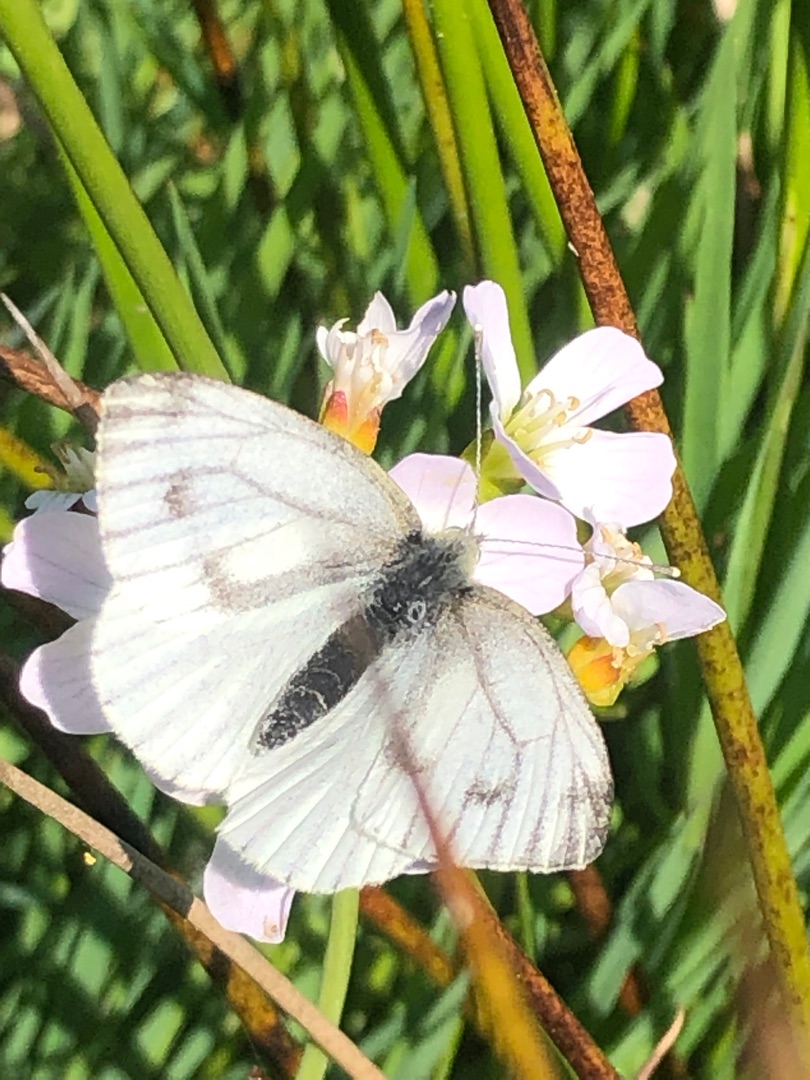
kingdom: Animalia
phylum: Arthropoda
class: Insecta
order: Lepidoptera
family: Pieridae
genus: Pieris
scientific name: Pieris napi
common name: Grønåret kålsommerfugl
